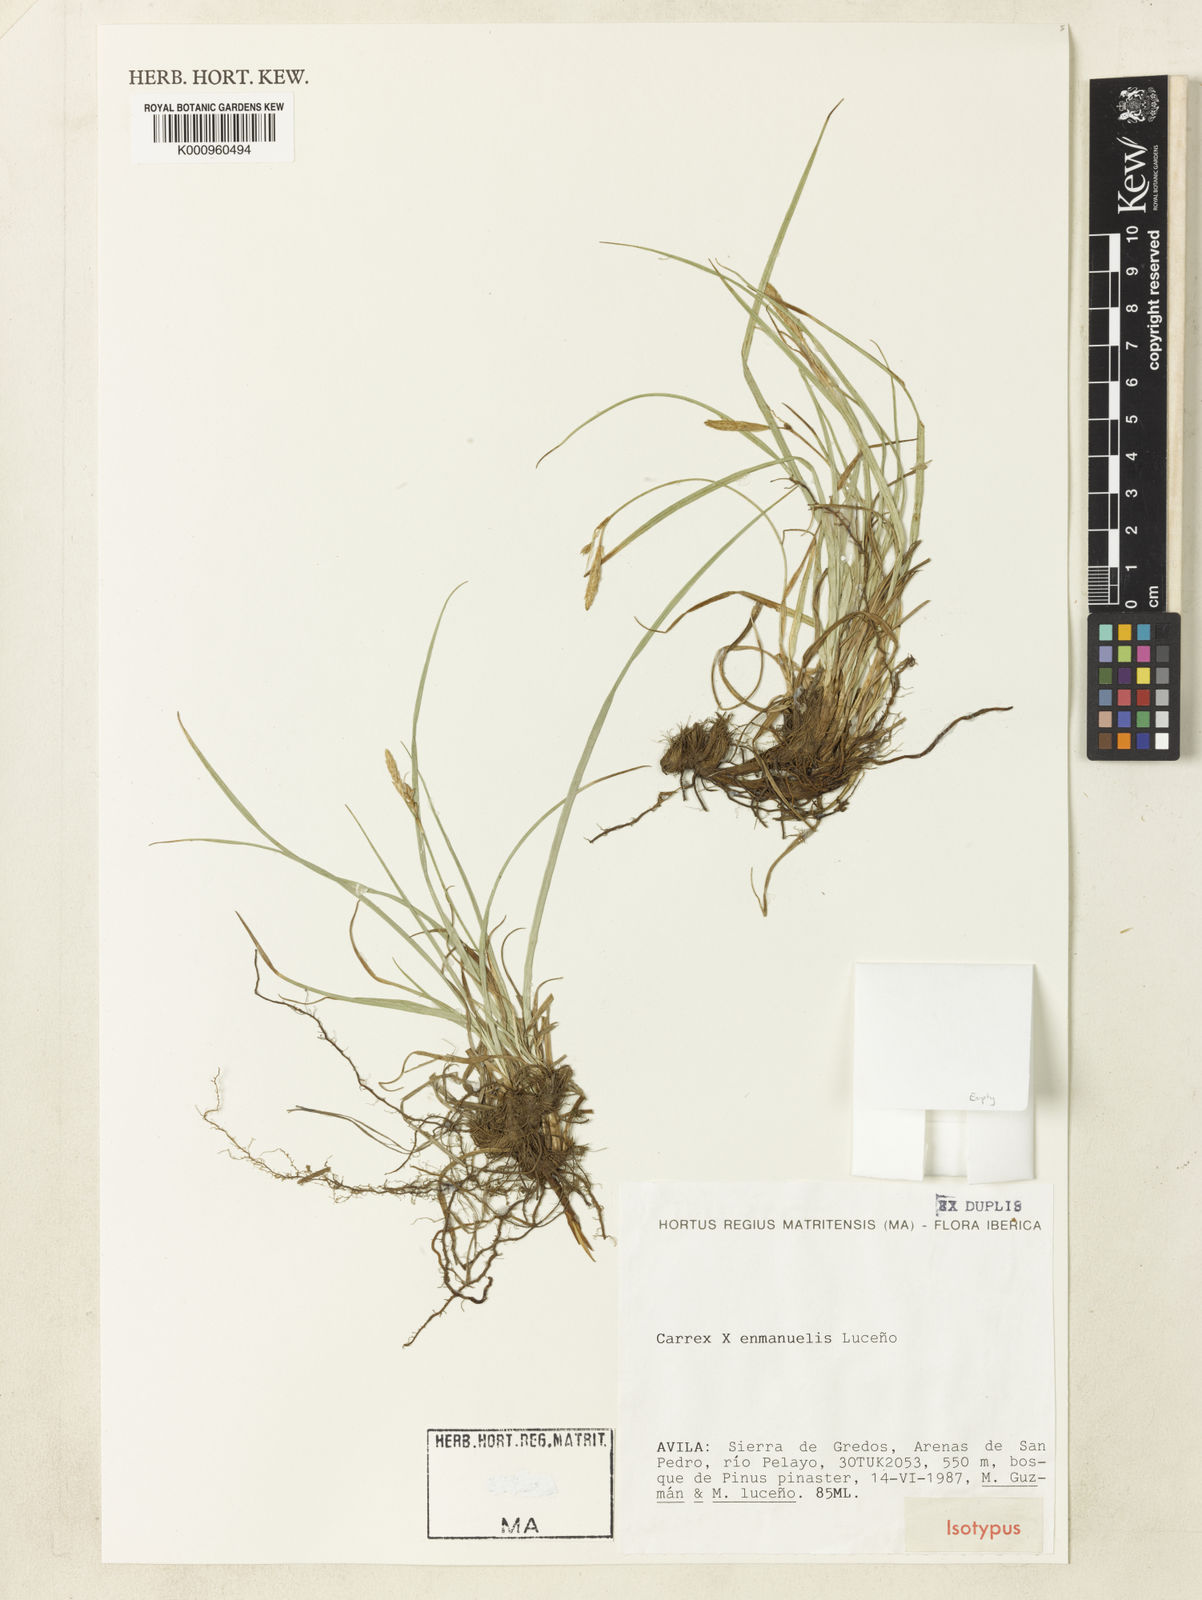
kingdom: Plantae
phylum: Tracheophyta
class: Liliopsida
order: Poales
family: Cyperaceae
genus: Carex
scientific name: Carex
